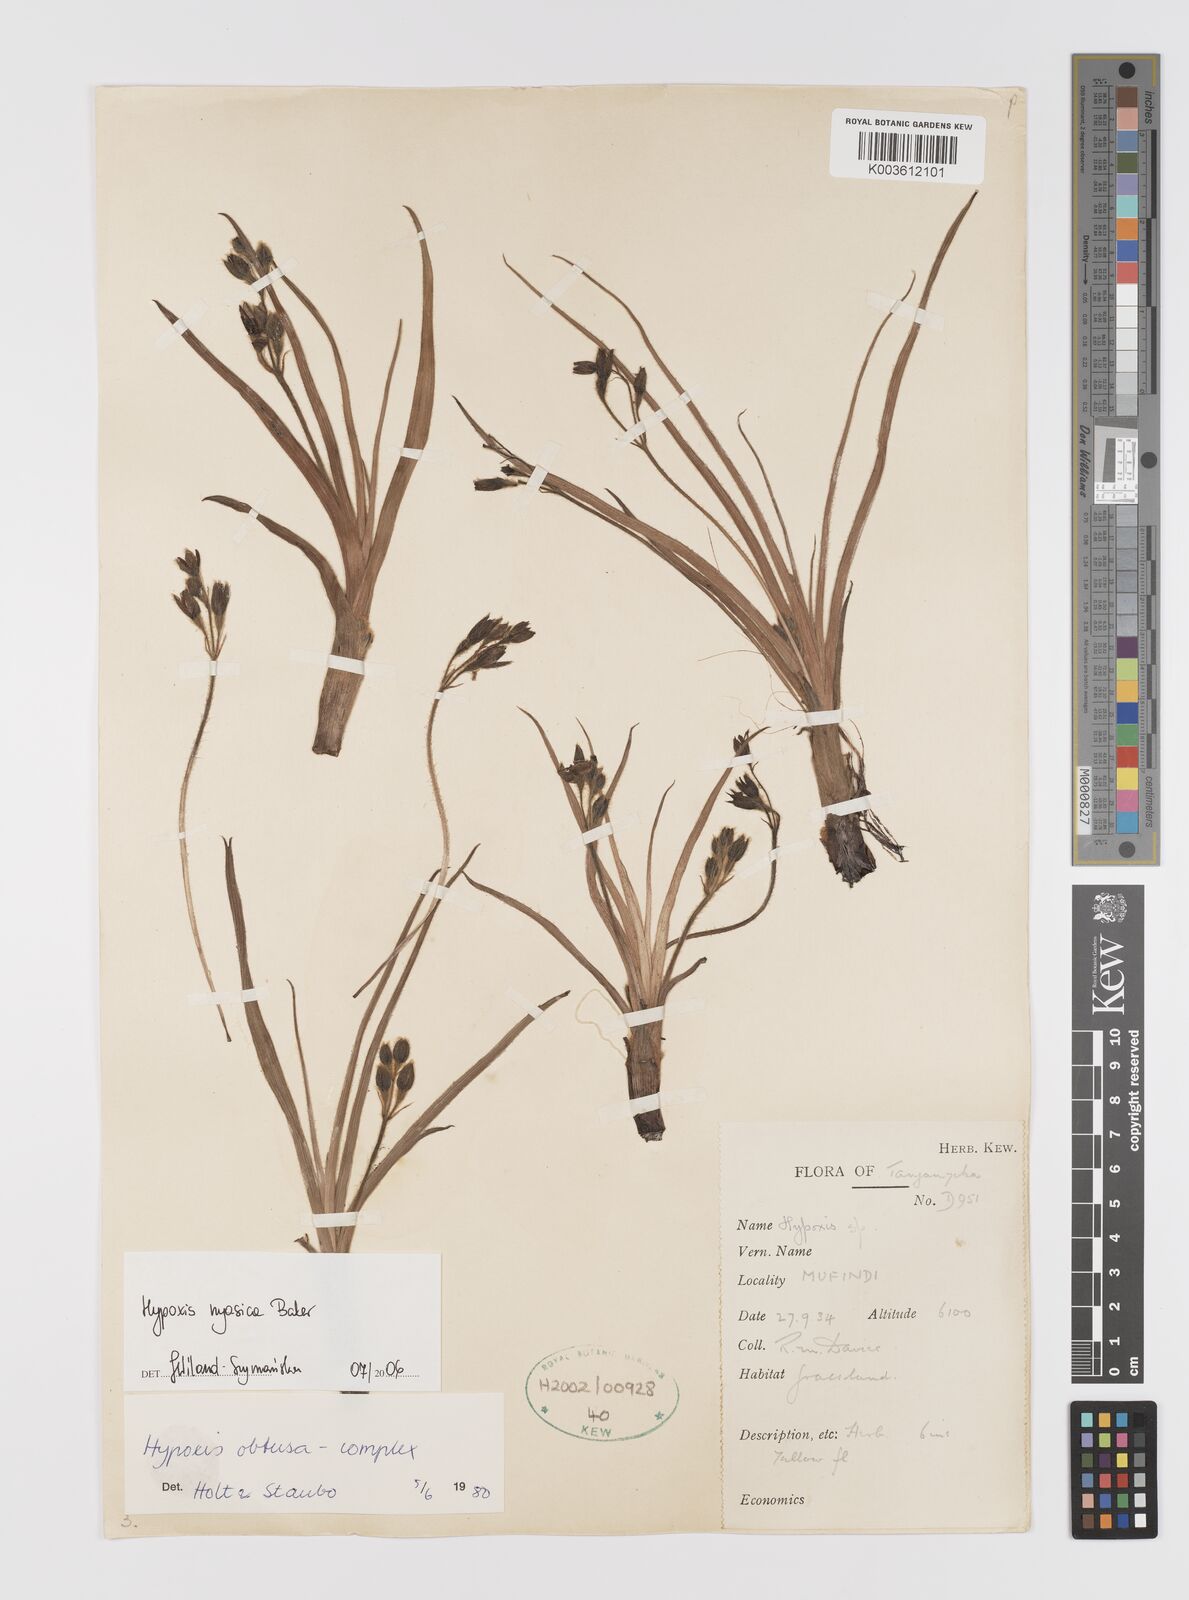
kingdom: Plantae
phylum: Tracheophyta
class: Liliopsida
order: Asparagales
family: Hypoxidaceae
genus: Hypoxis
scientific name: Hypoxis nyasica
